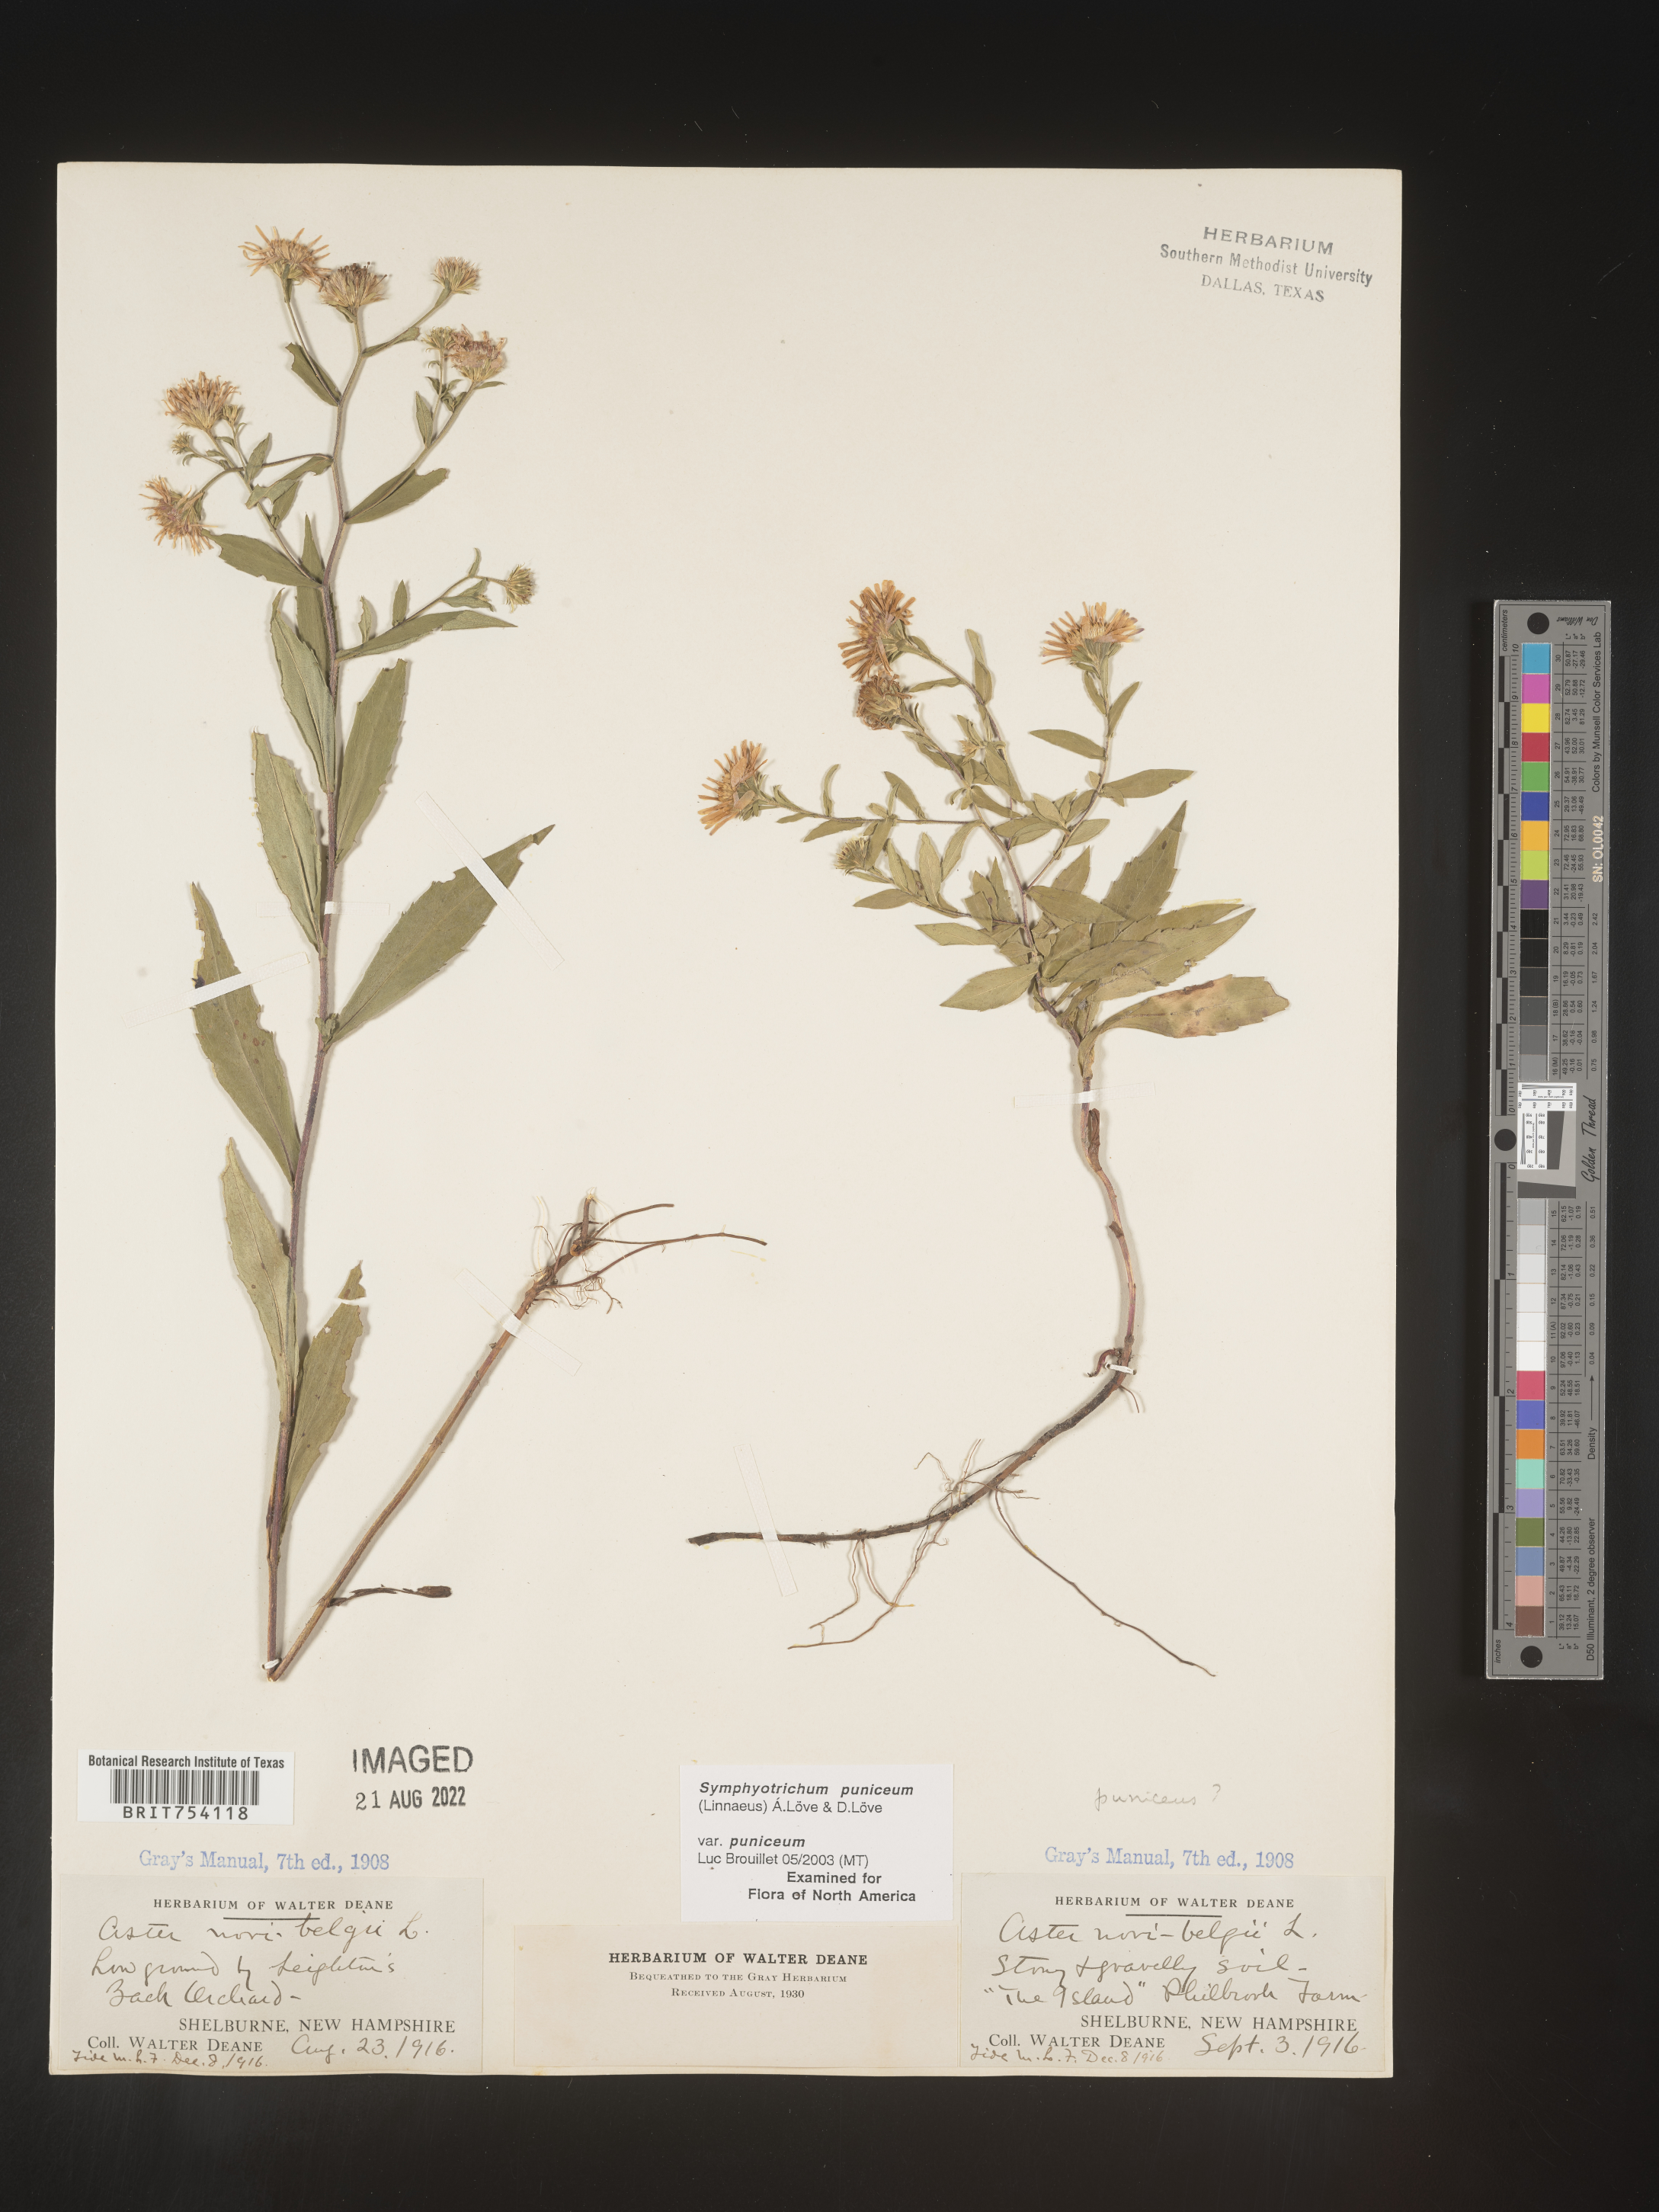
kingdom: Plantae
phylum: Tracheophyta
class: Magnoliopsida
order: Asterales
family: Asteraceae
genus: Symphyotrichum
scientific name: Symphyotrichum puniceum
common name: Bog aster
